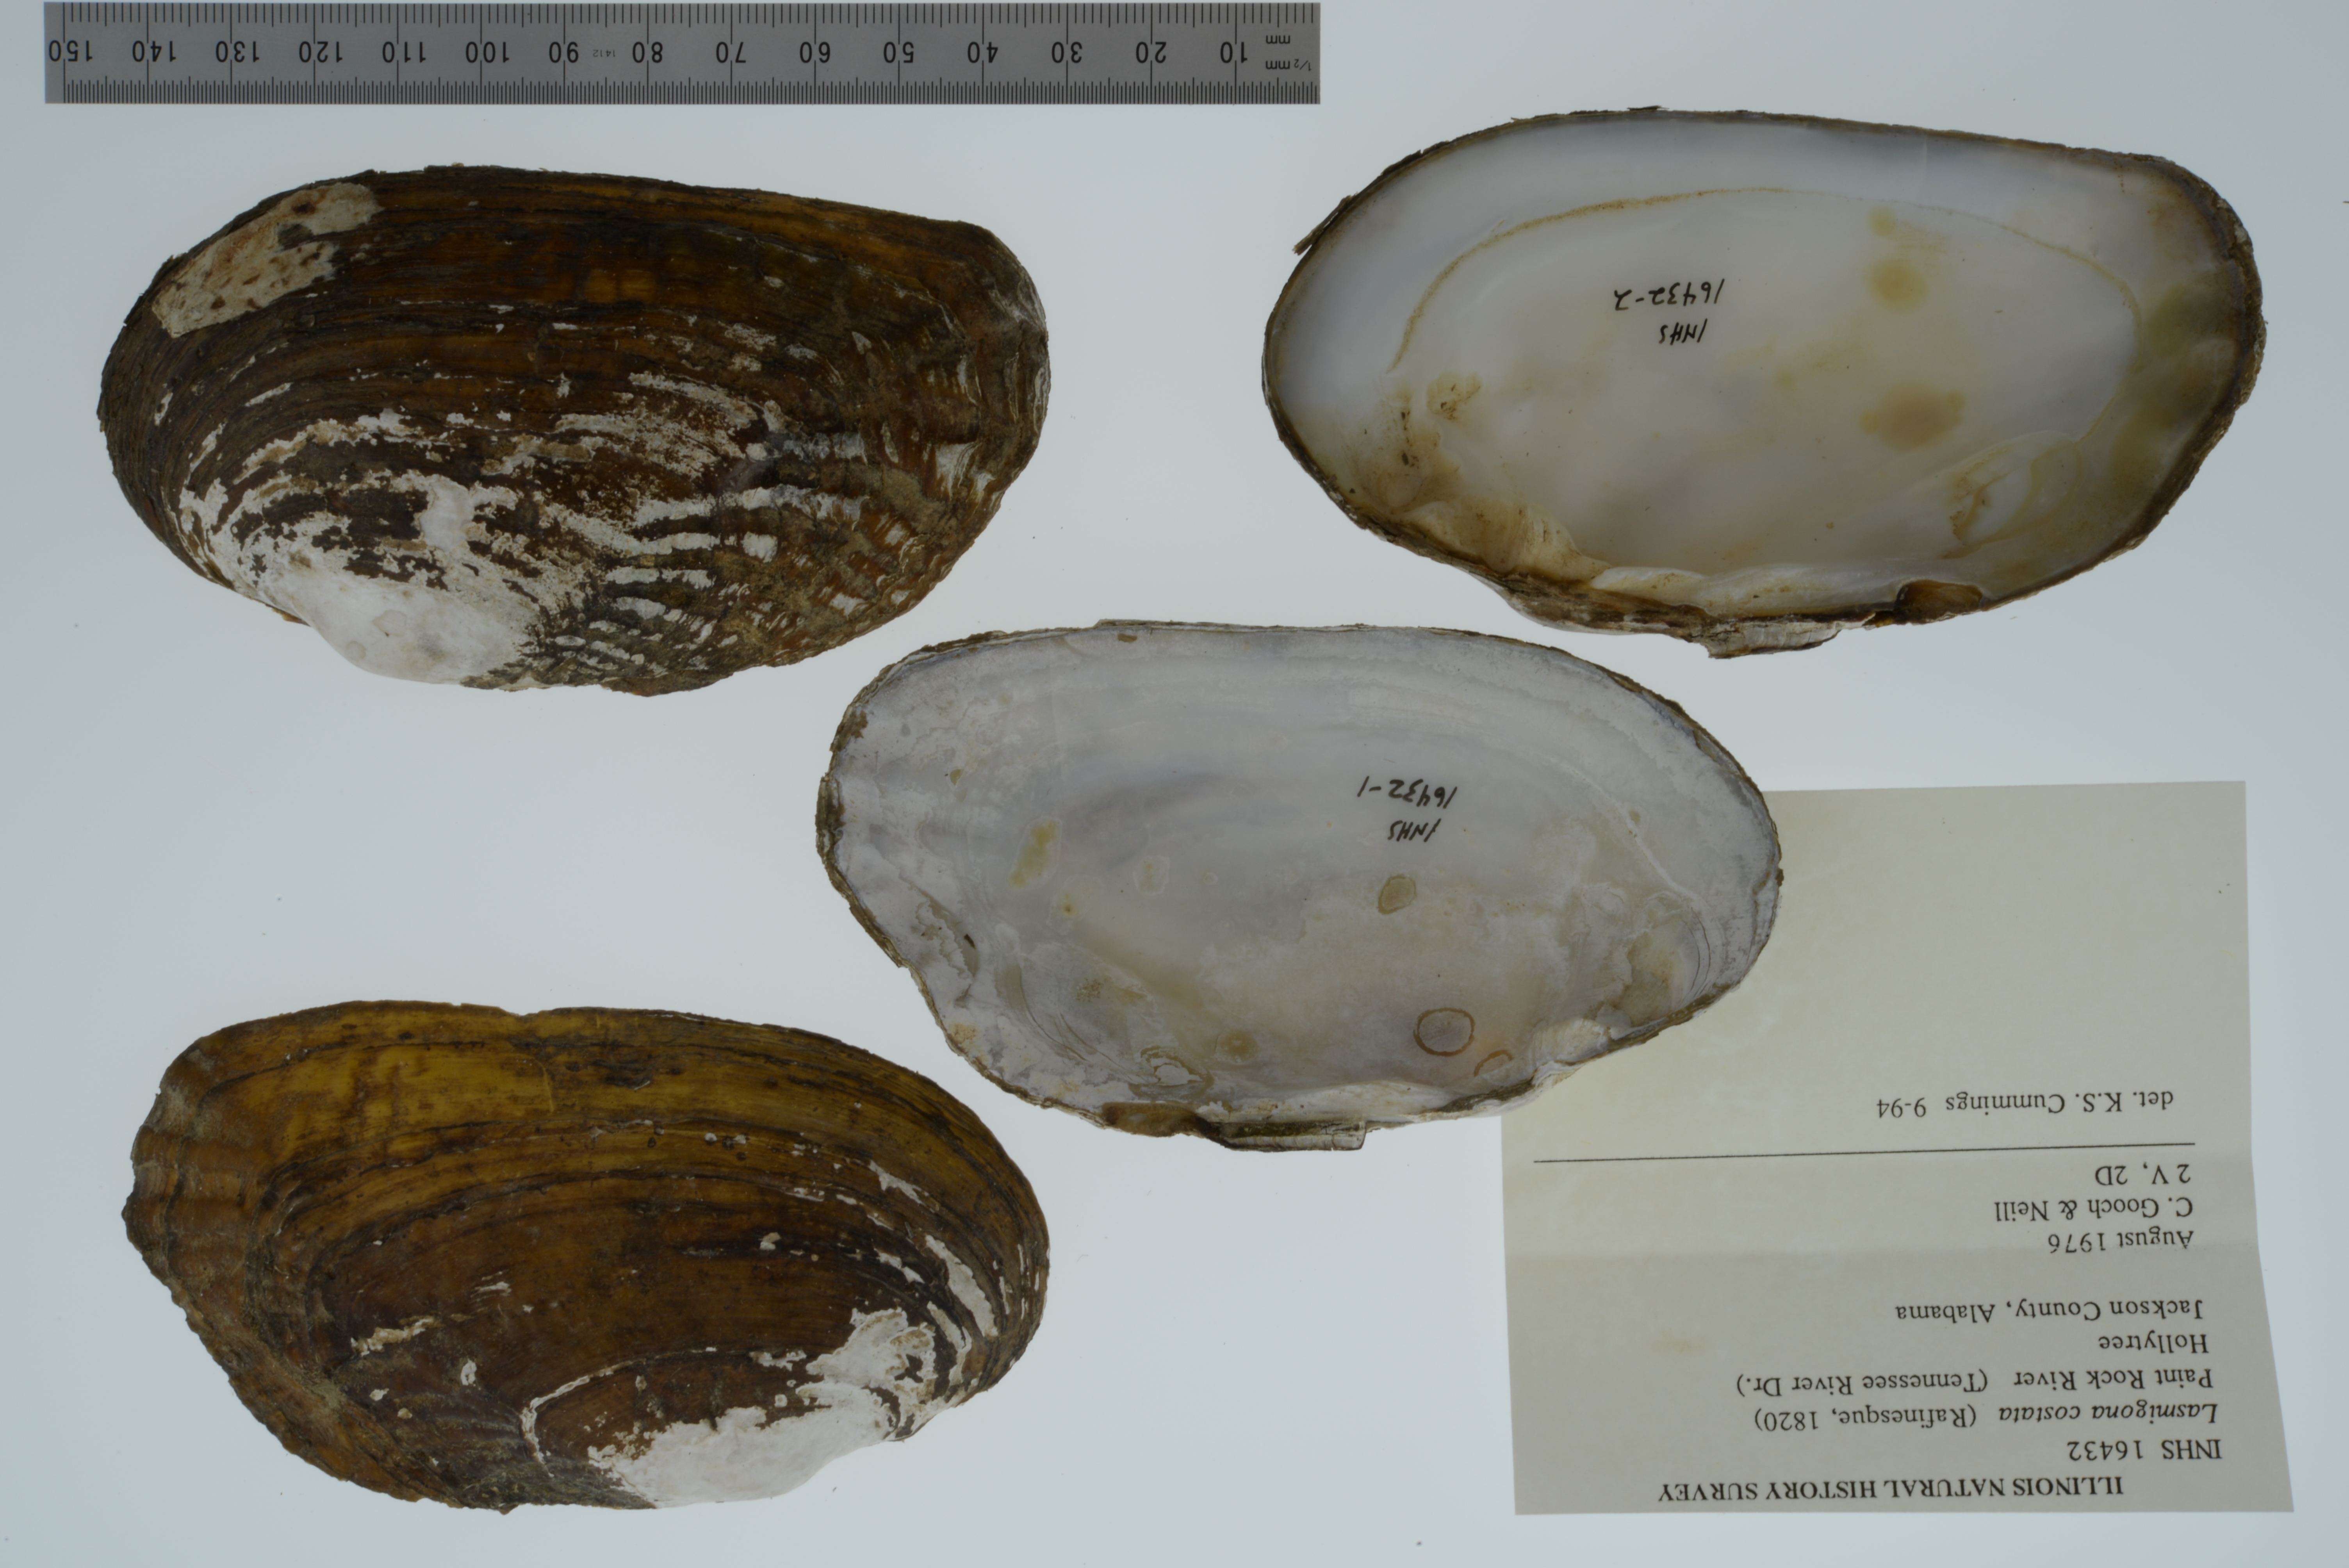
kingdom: Animalia
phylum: Mollusca
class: Bivalvia
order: Unionida
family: Unionidae
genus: Lasmigona
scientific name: Lasmigona costata
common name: Flutedshell
